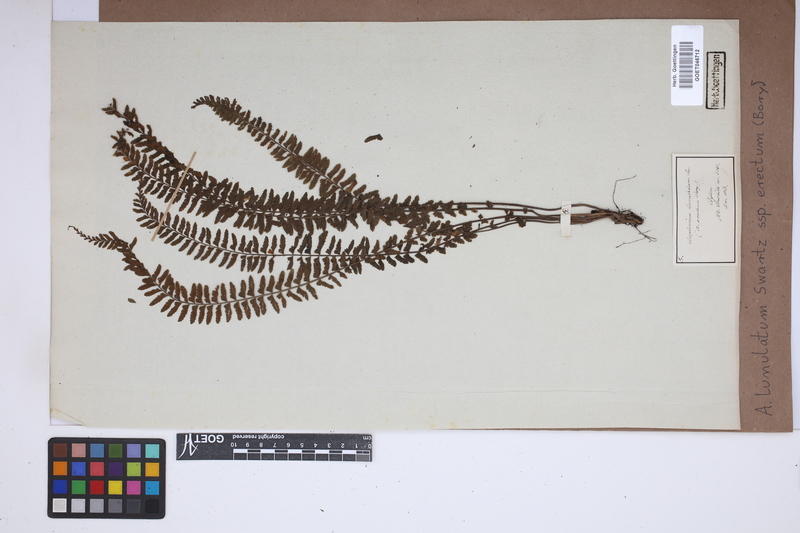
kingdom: Plantae
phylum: Tracheophyta
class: Polypodiopsida
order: Polypodiales
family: Aspleniaceae
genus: Asplenium
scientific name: Asplenium erectum
